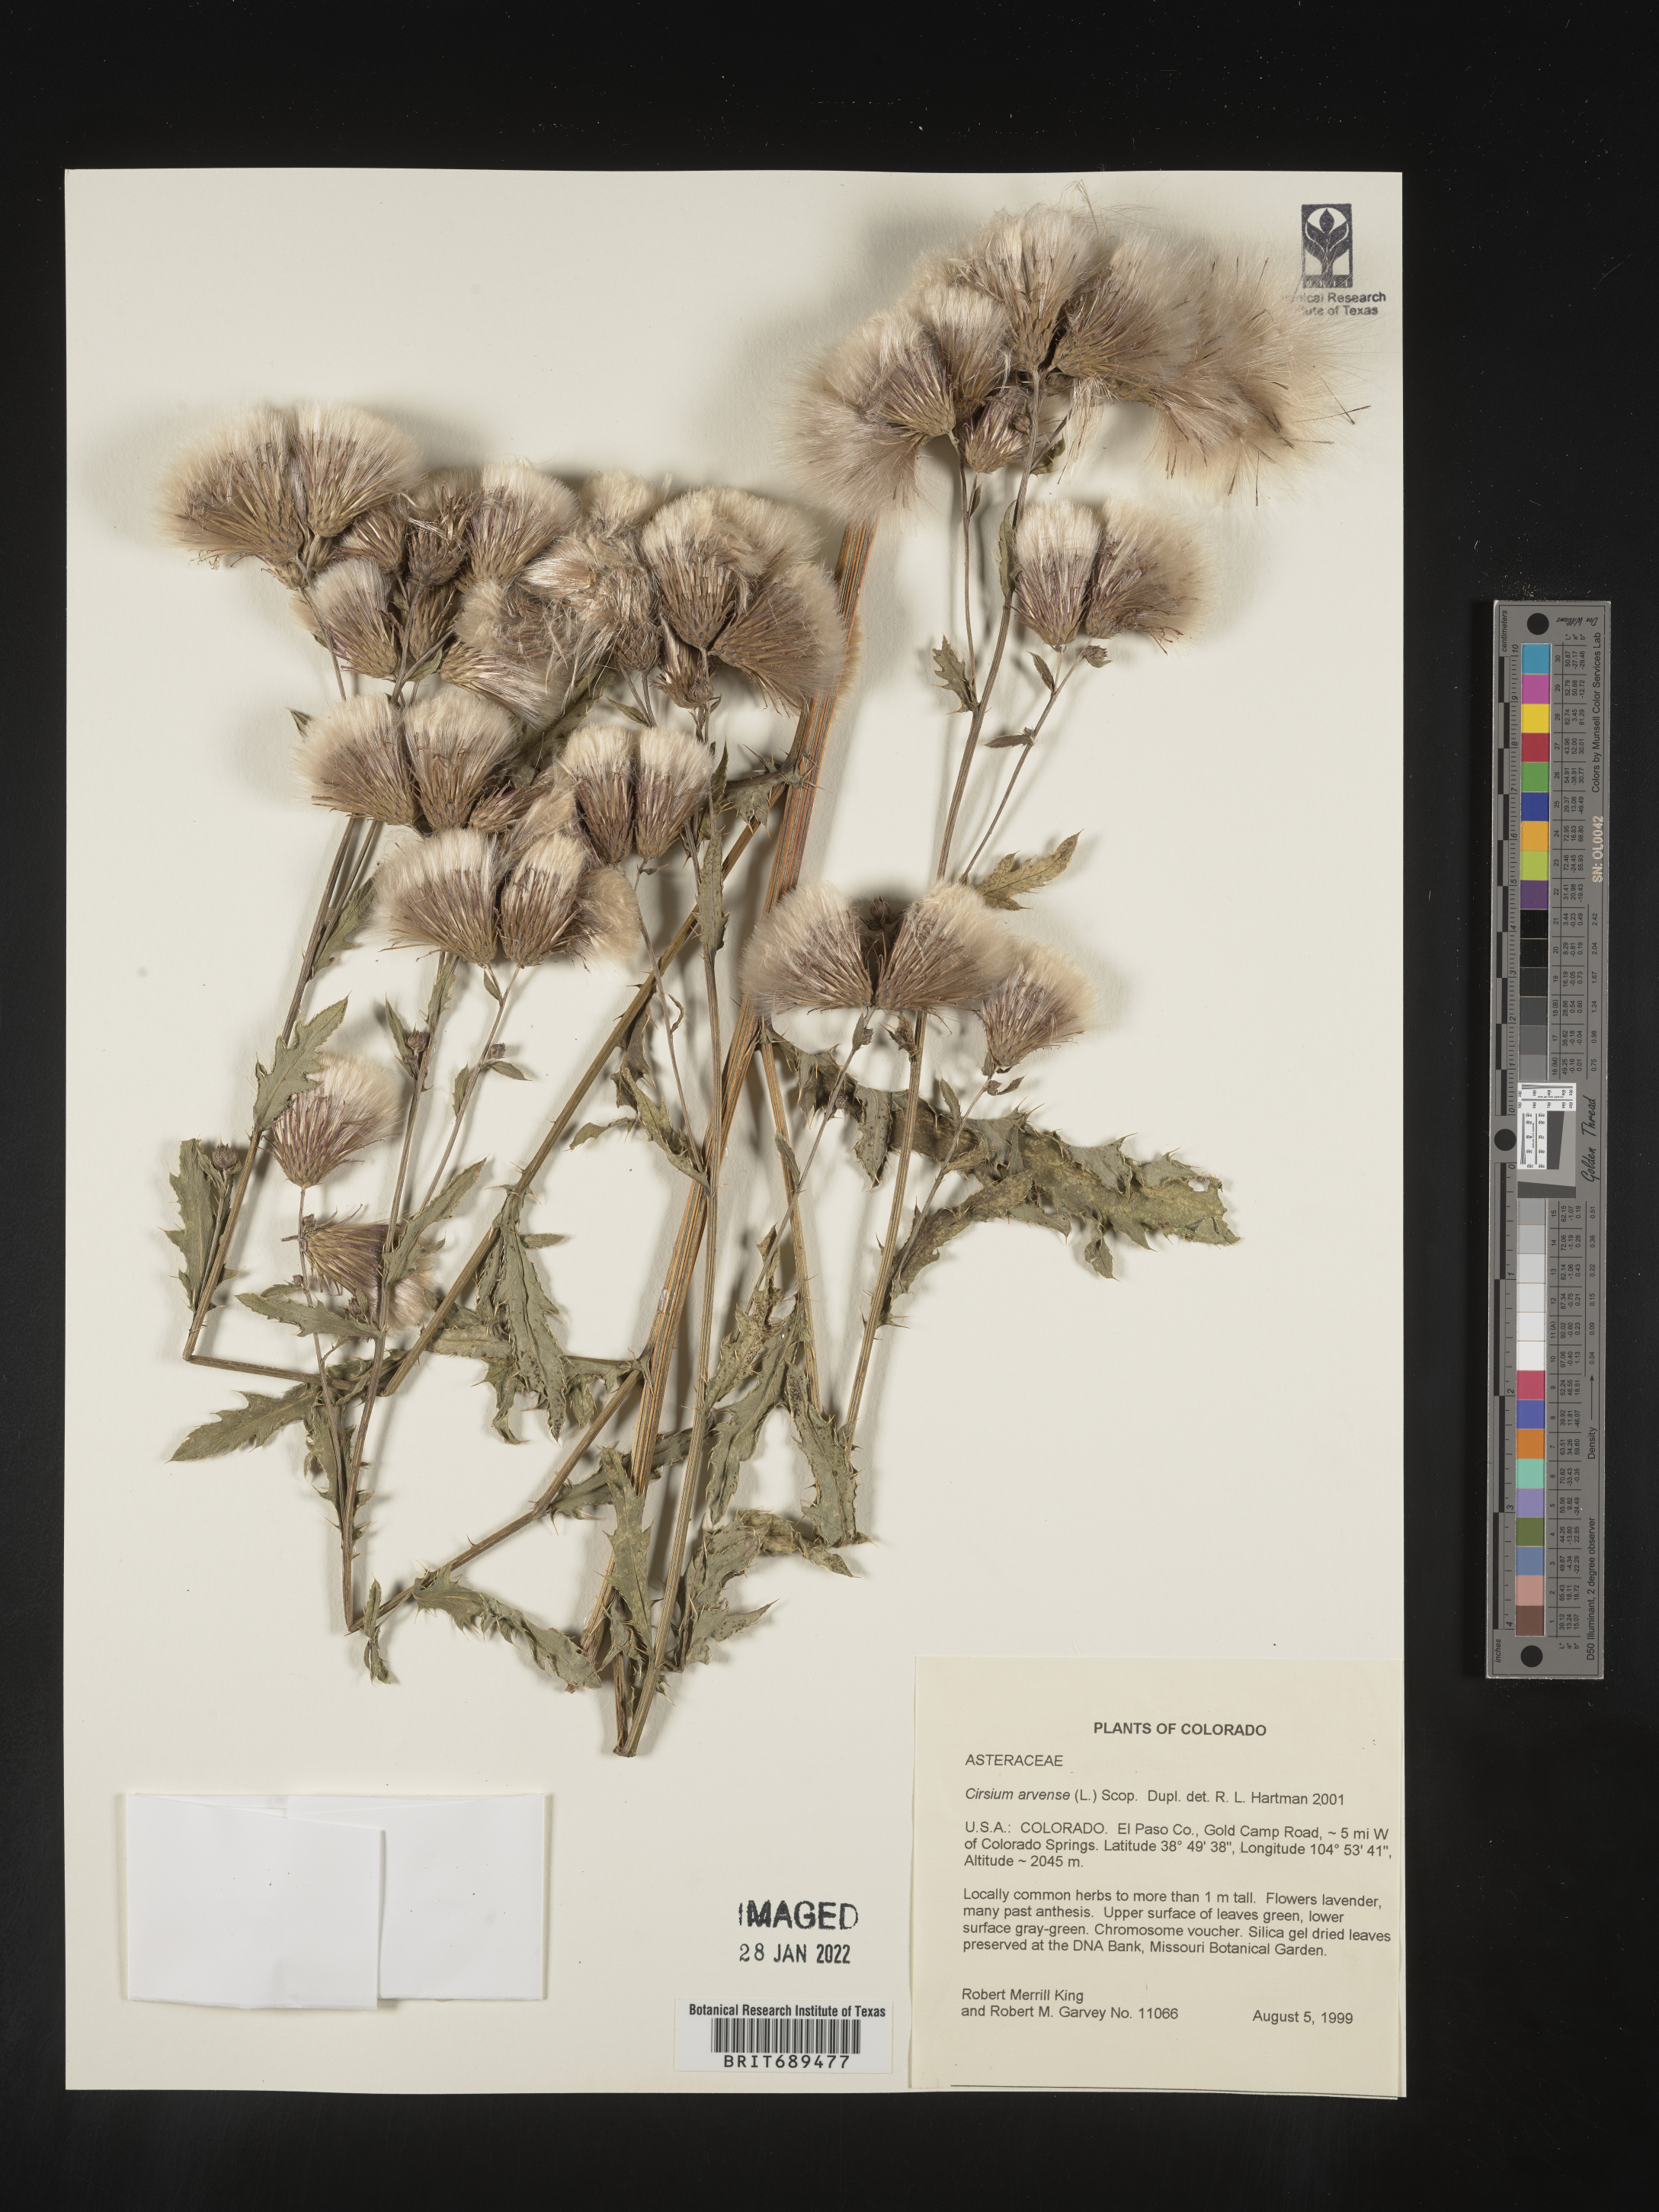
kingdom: Plantae
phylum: Tracheophyta
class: Magnoliopsida
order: Asterales
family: Asteraceae
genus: Cirsium
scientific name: Cirsium arvense
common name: Creeping thistle
